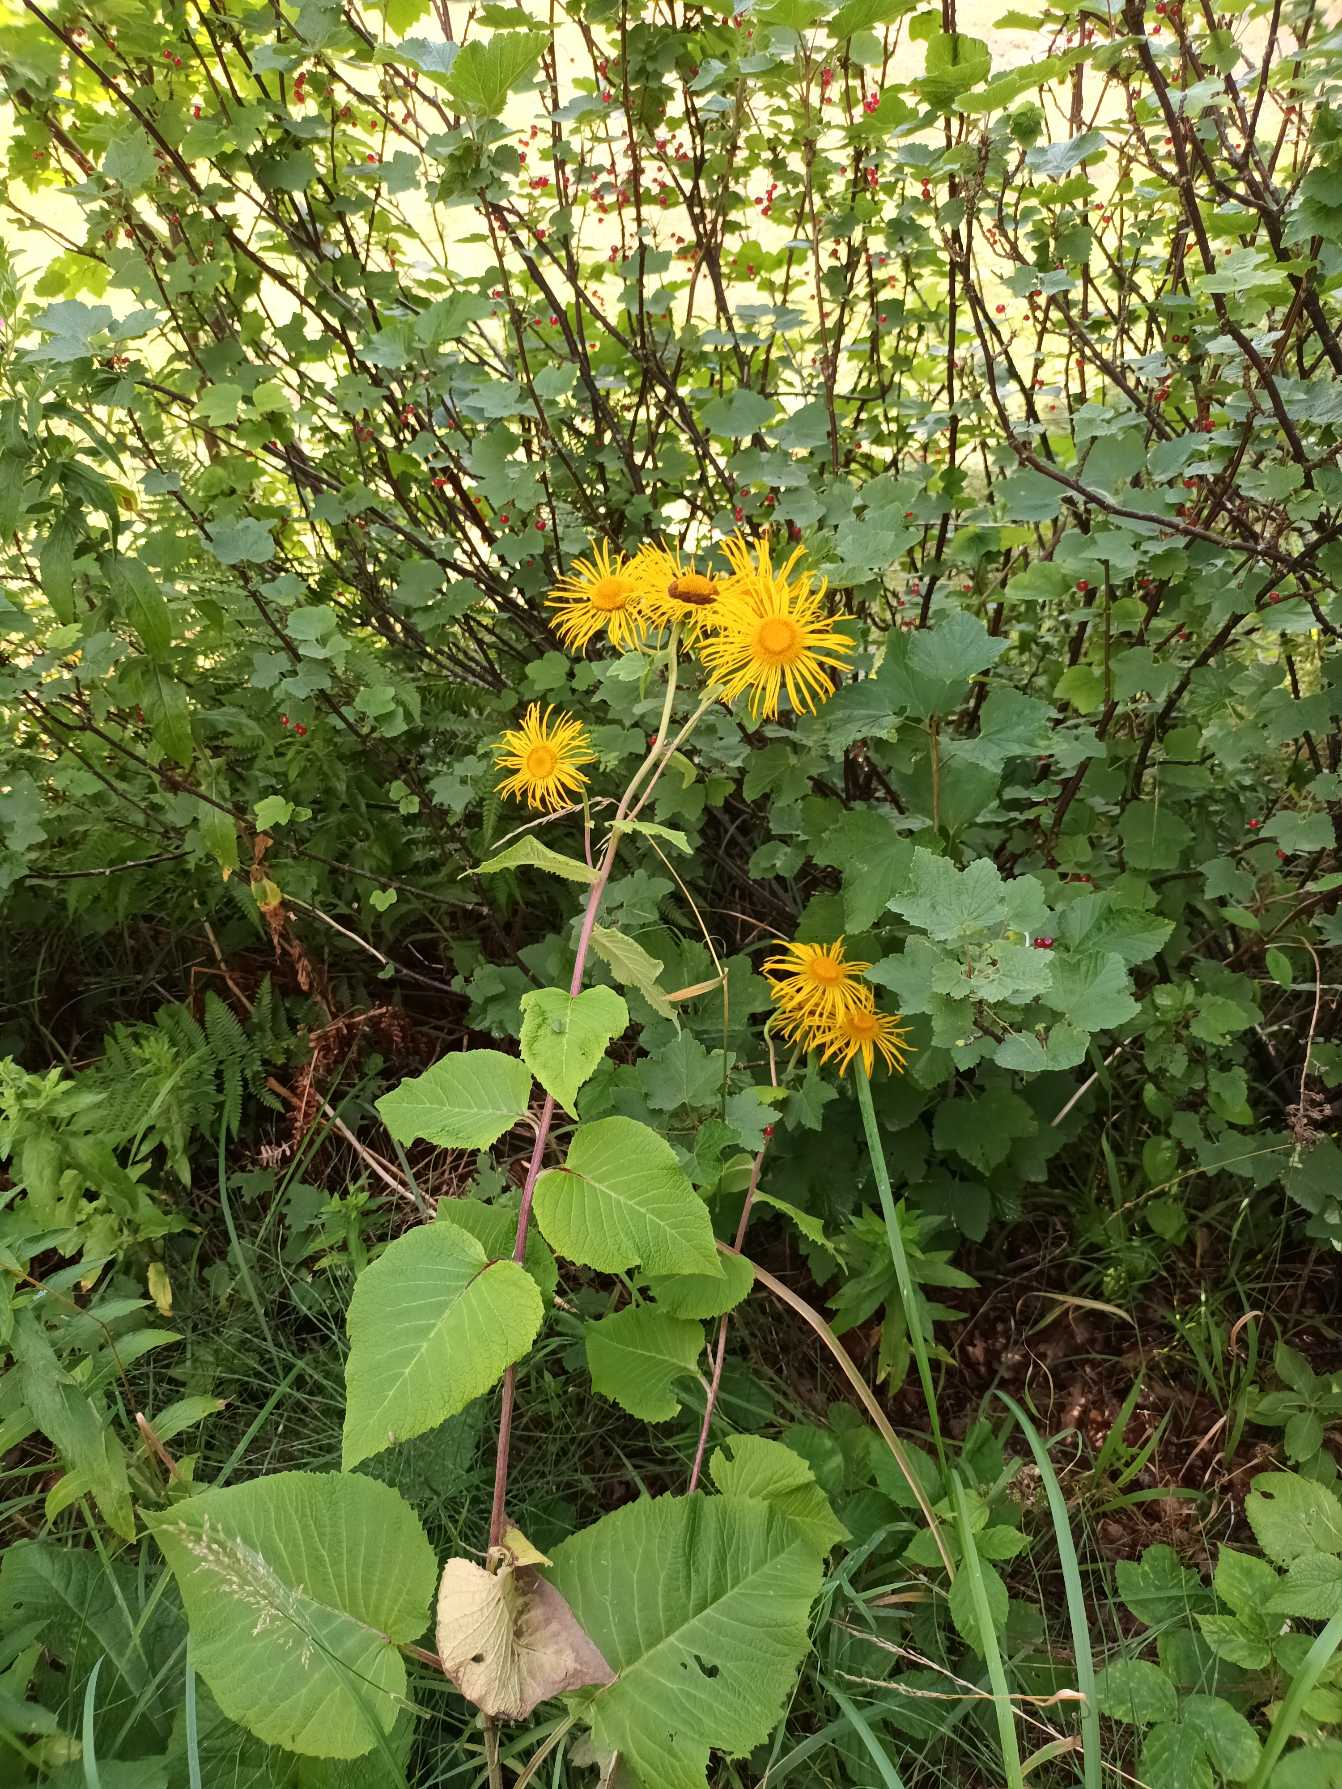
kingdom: Plantae
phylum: Tracheophyta
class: Magnoliopsida
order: Asterales
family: Asteraceae
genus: Telekia
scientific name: Telekia speciosa
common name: Tusindstråle
